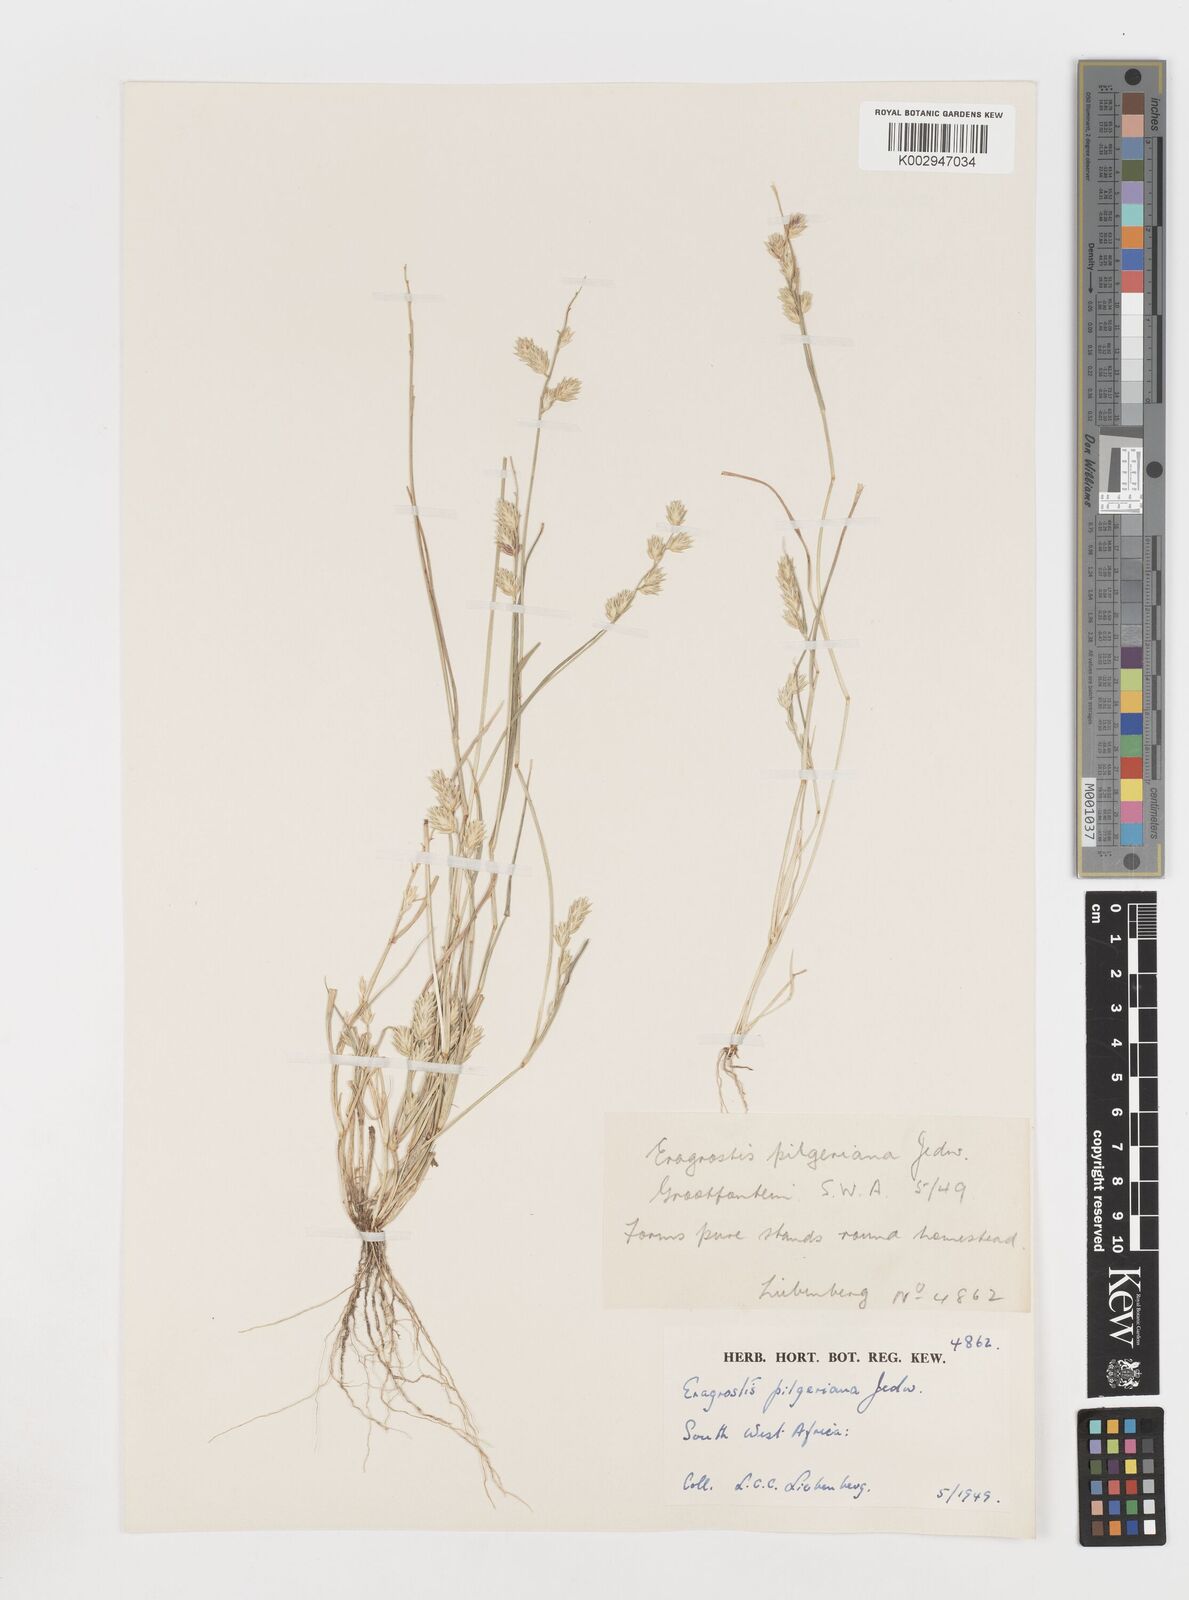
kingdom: Plantae
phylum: Tracheophyta
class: Liliopsida
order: Poales
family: Poaceae
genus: Eragrostis
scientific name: Eragrostis pilgeriana
